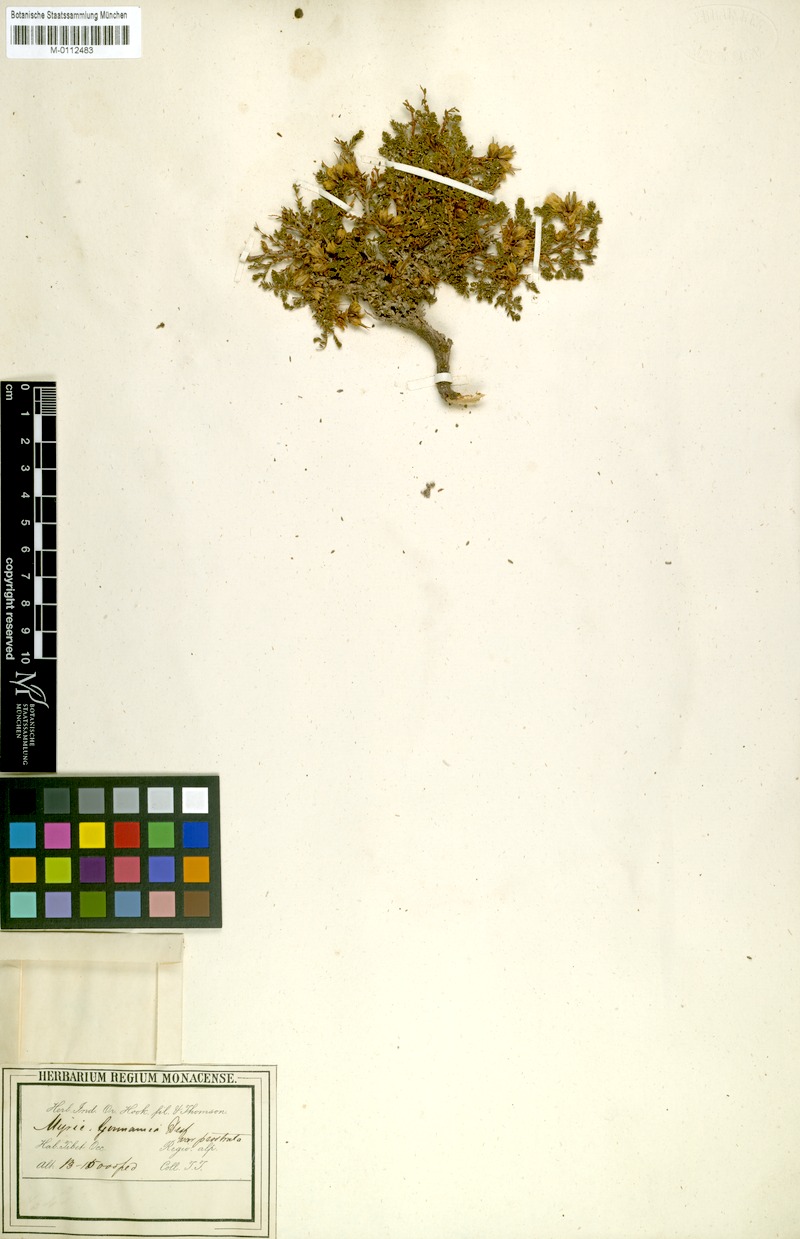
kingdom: Plantae
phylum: Tracheophyta
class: Magnoliopsida
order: Caryophyllales
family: Tamaricaceae
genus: Myricaria
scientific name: Myricaria prostrata
